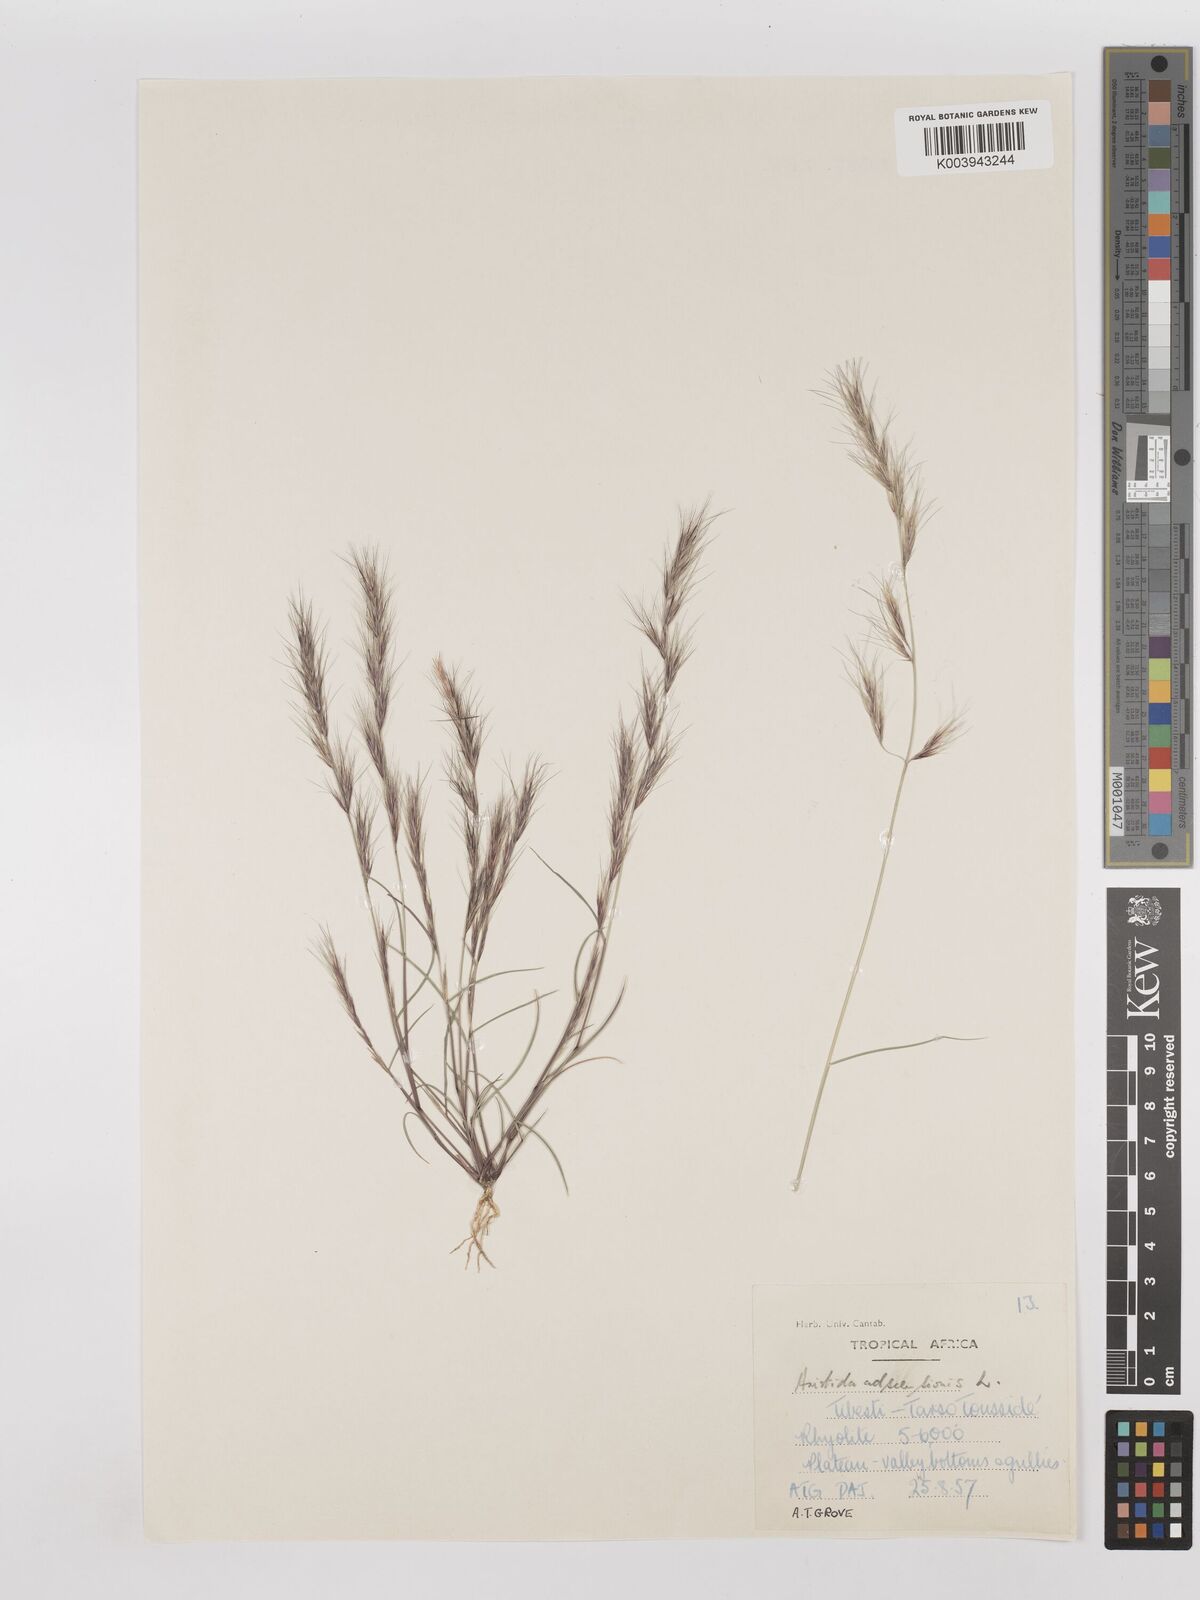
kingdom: Plantae
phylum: Tracheophyta
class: Liliopsida
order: Poales
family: Poaceae
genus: Aristida
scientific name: Aristida adscensionis
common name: Sixweeks threeawn
